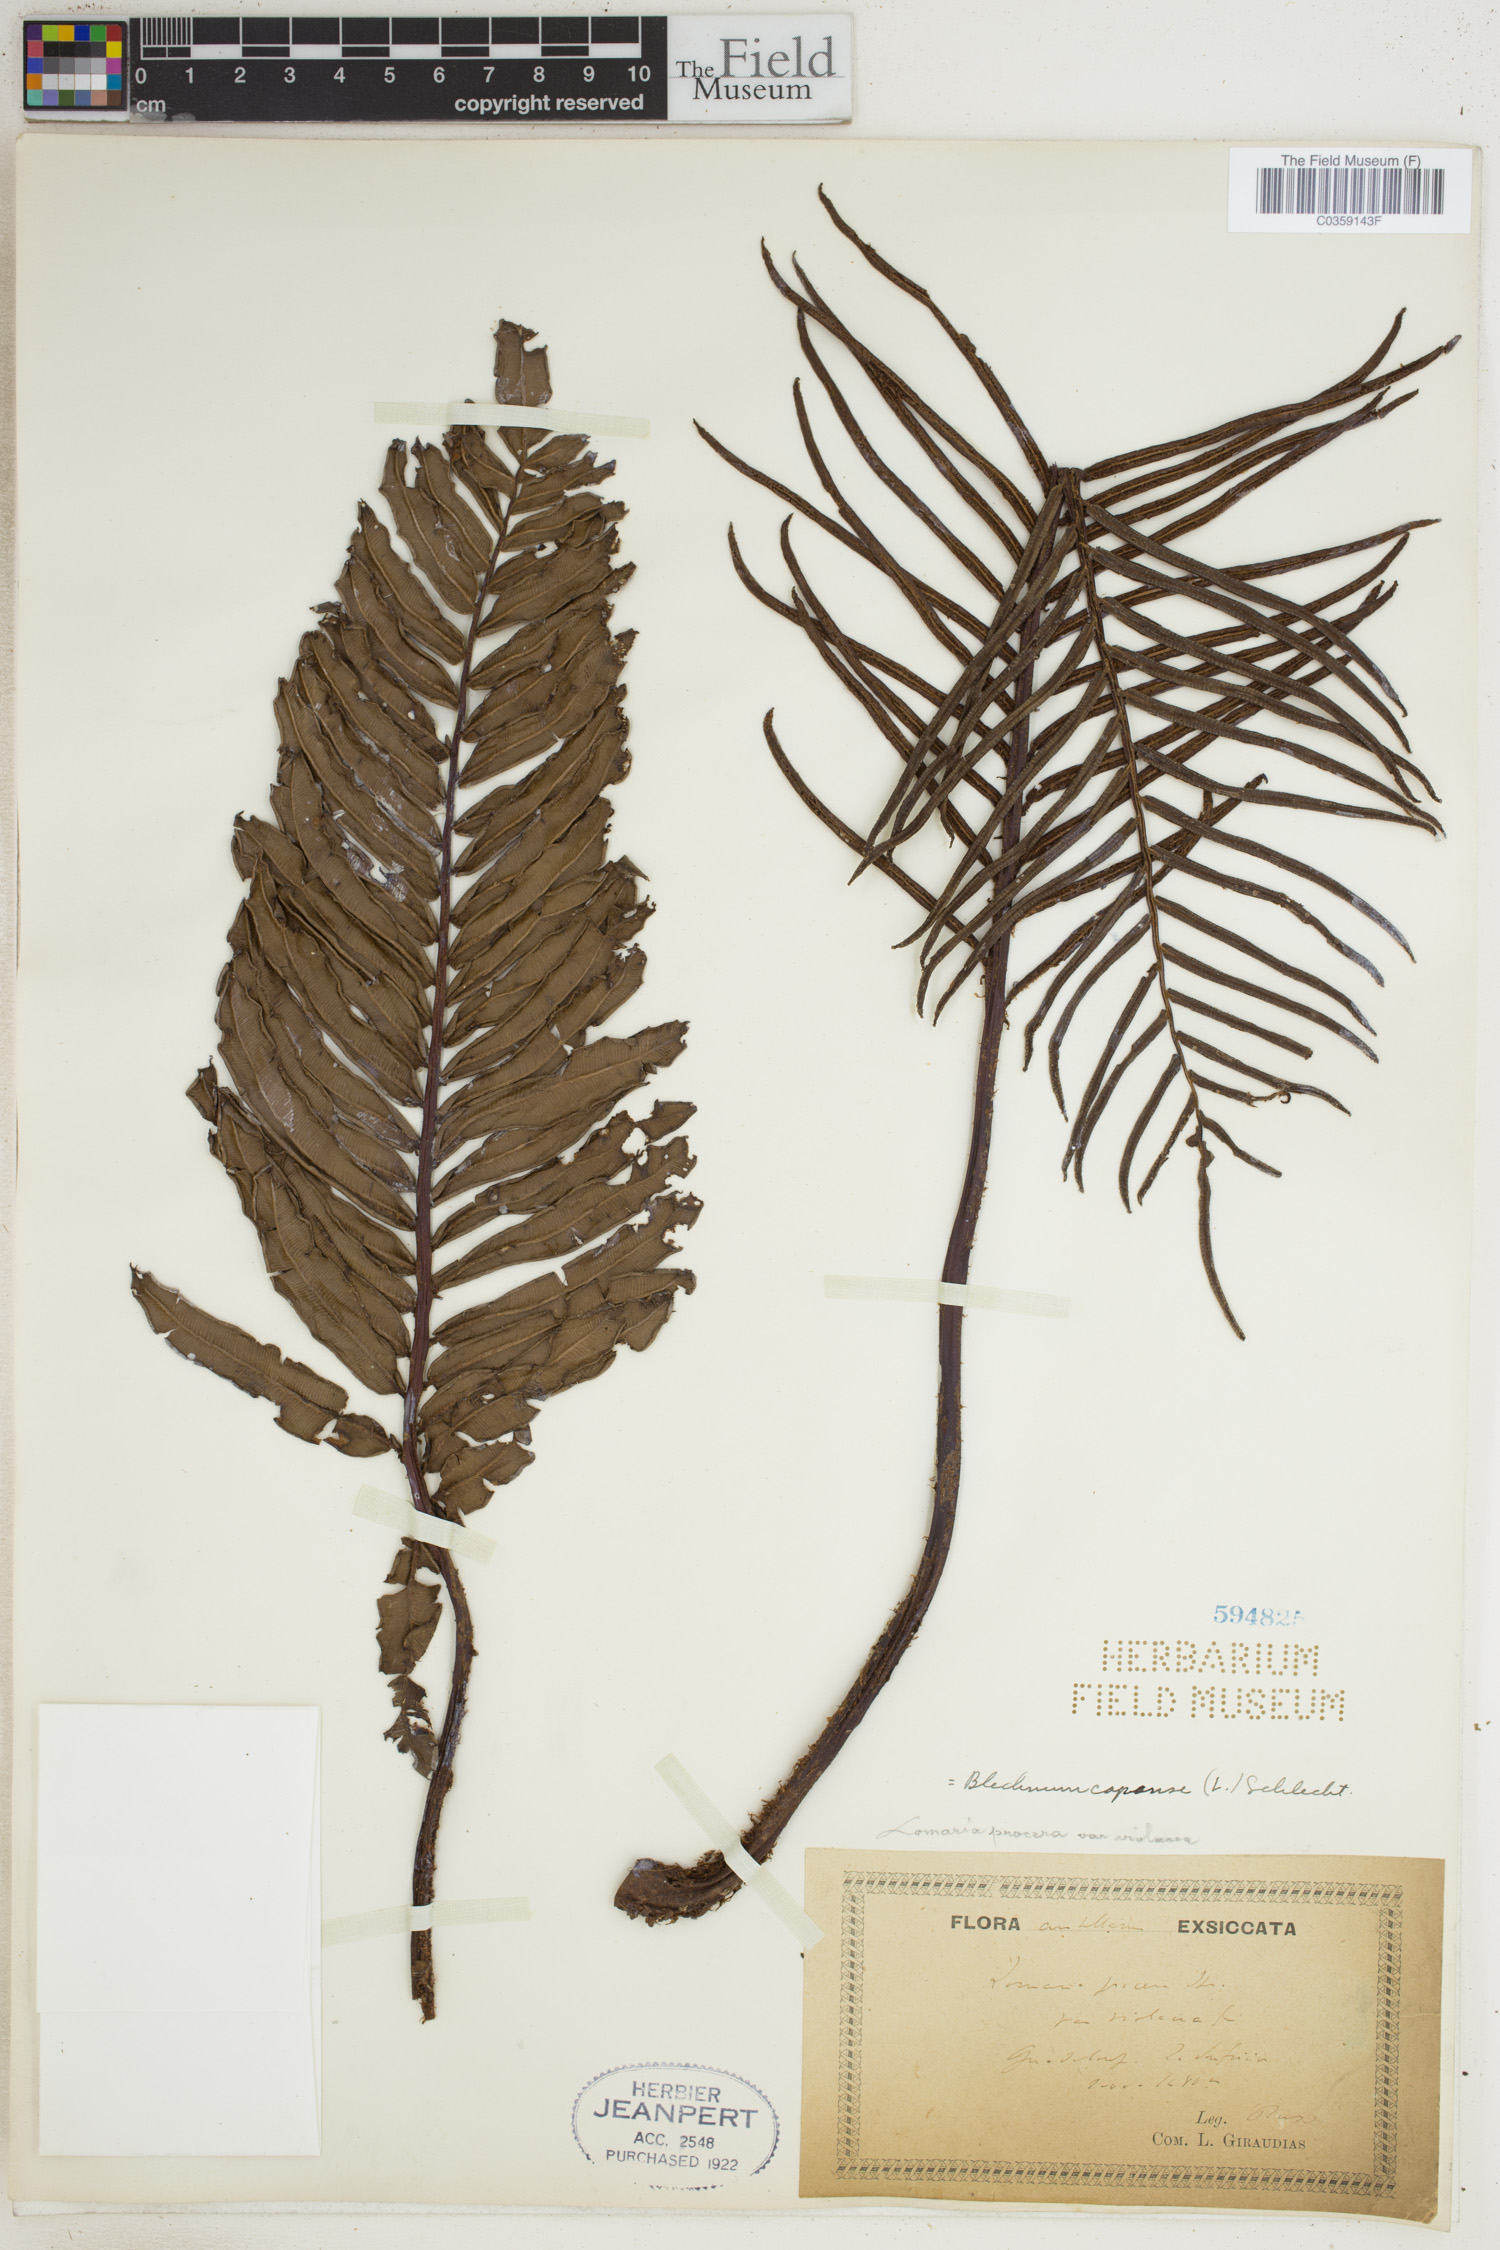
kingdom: Plantae
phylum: Tracheophyta
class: Polypodiopsida
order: Polypodiales
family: Blechnaceae
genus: Parablechnum
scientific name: Parablechnum capense
